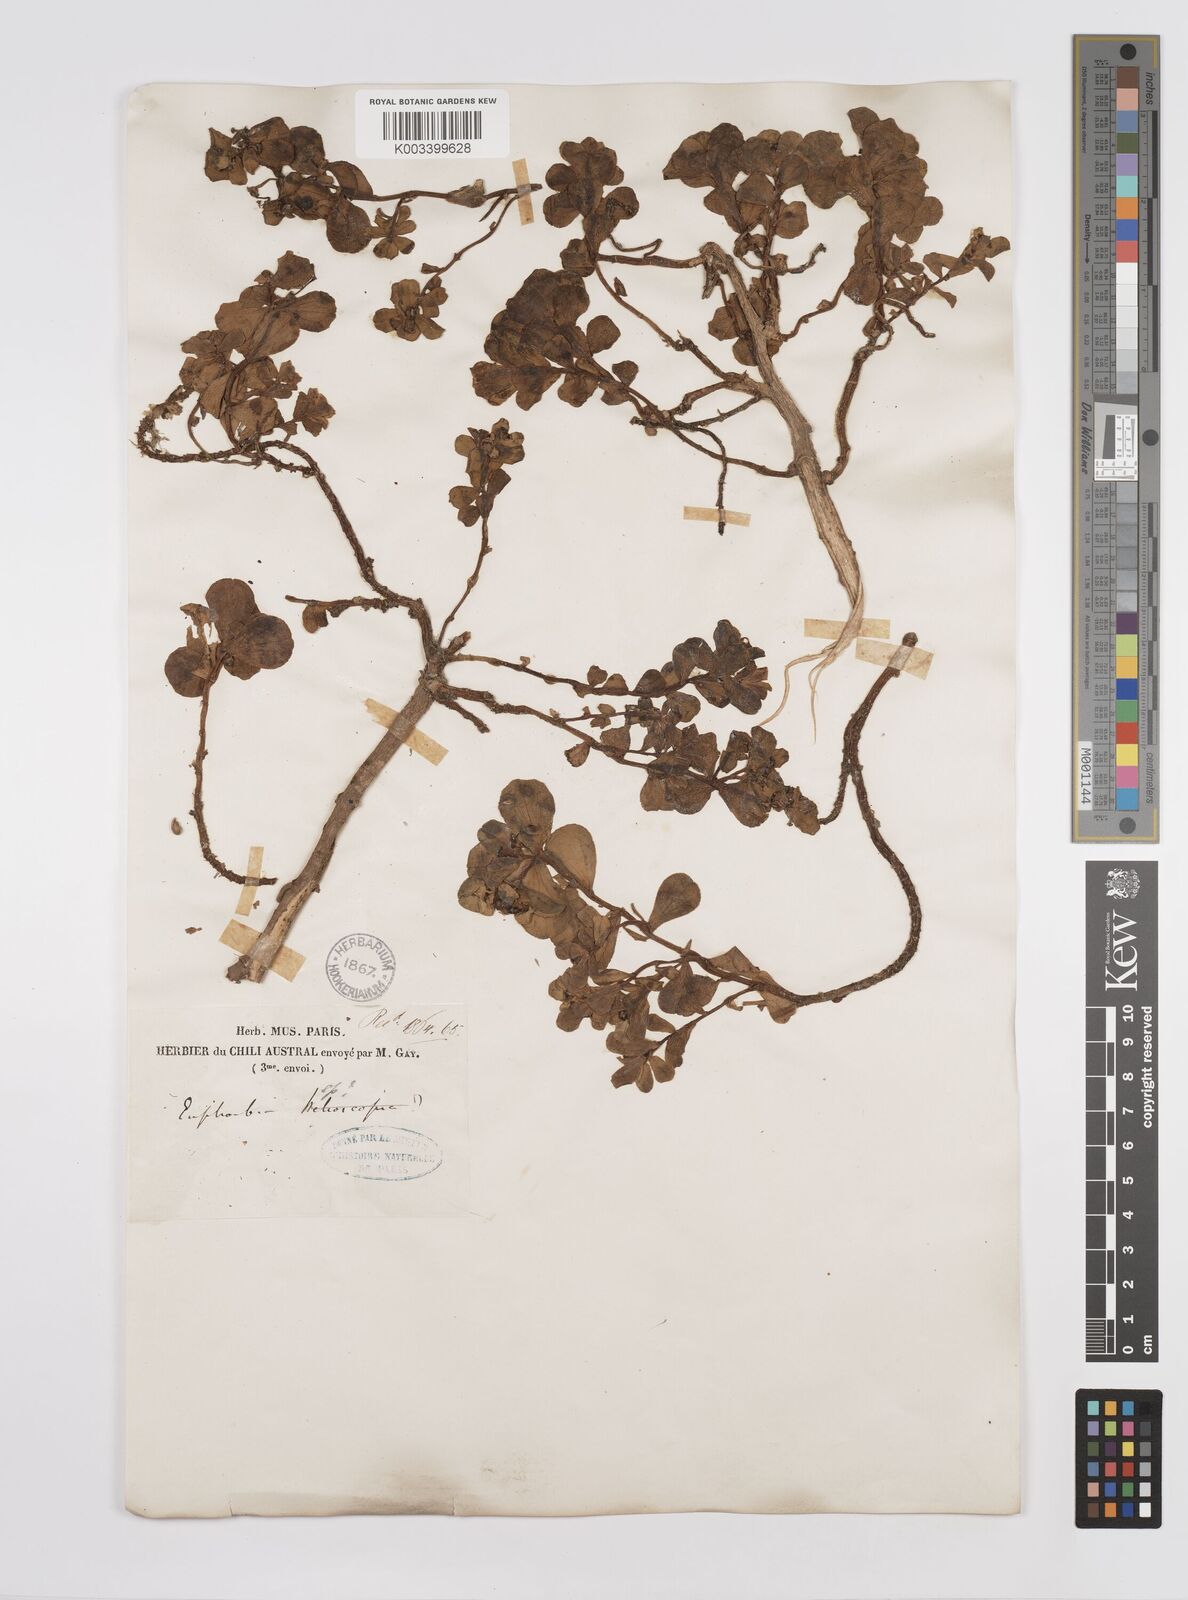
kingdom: Plantae
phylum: Tracheophyta
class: Magnoliopsida
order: Malpighiales
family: Euphorbiaceae
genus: Euphorbia
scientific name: Euphorbia portulacoides
